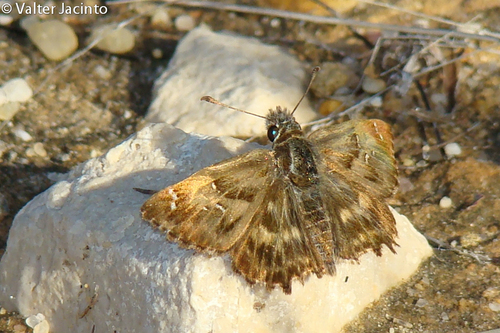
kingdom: Animalia
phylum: Arthropoda
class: Insecta
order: Lepidoptera
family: Hesperiidae
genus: Carcharodus
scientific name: Carcharodus alceae
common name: Mallow skipper
